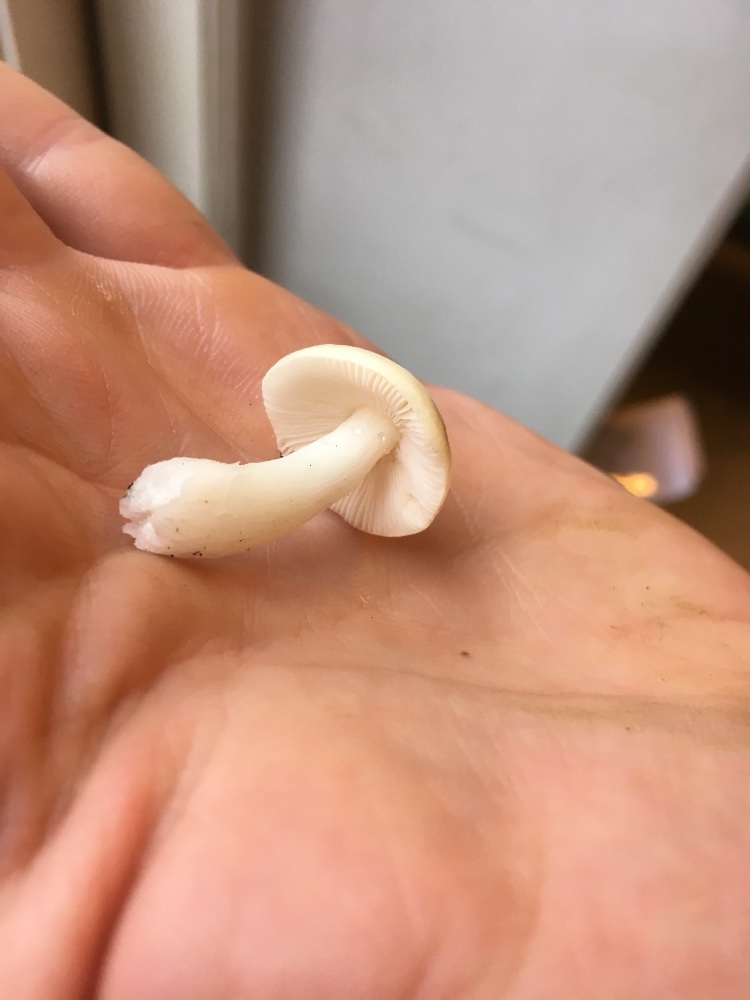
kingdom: Fungi
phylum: Basidiomycota
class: Agaricomycetes
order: Russulales
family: Russulaceae
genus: Russula
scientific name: Russula solaris
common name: sol-skørhat
